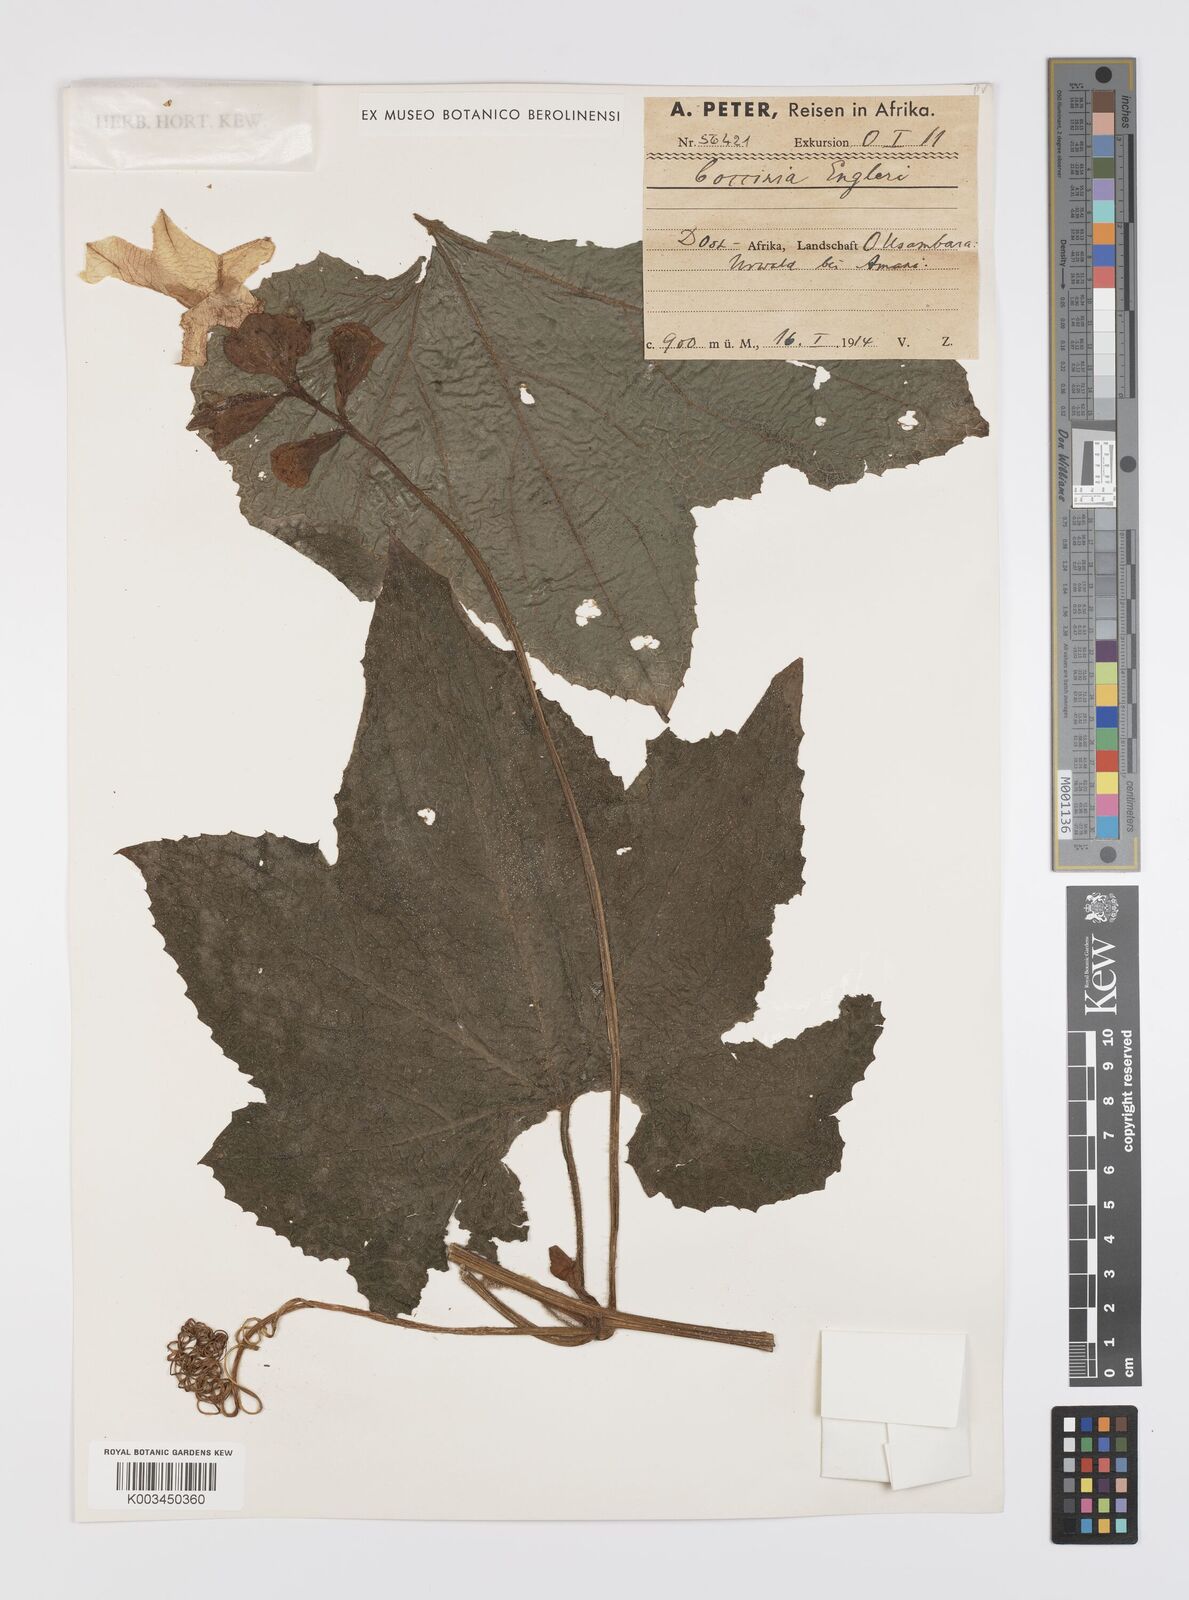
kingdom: Plantae
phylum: Tracheophyta
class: Magnoliopsida
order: Cucurbitales
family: Cucurbitaceae
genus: Peponium
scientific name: Peponium vogelii
